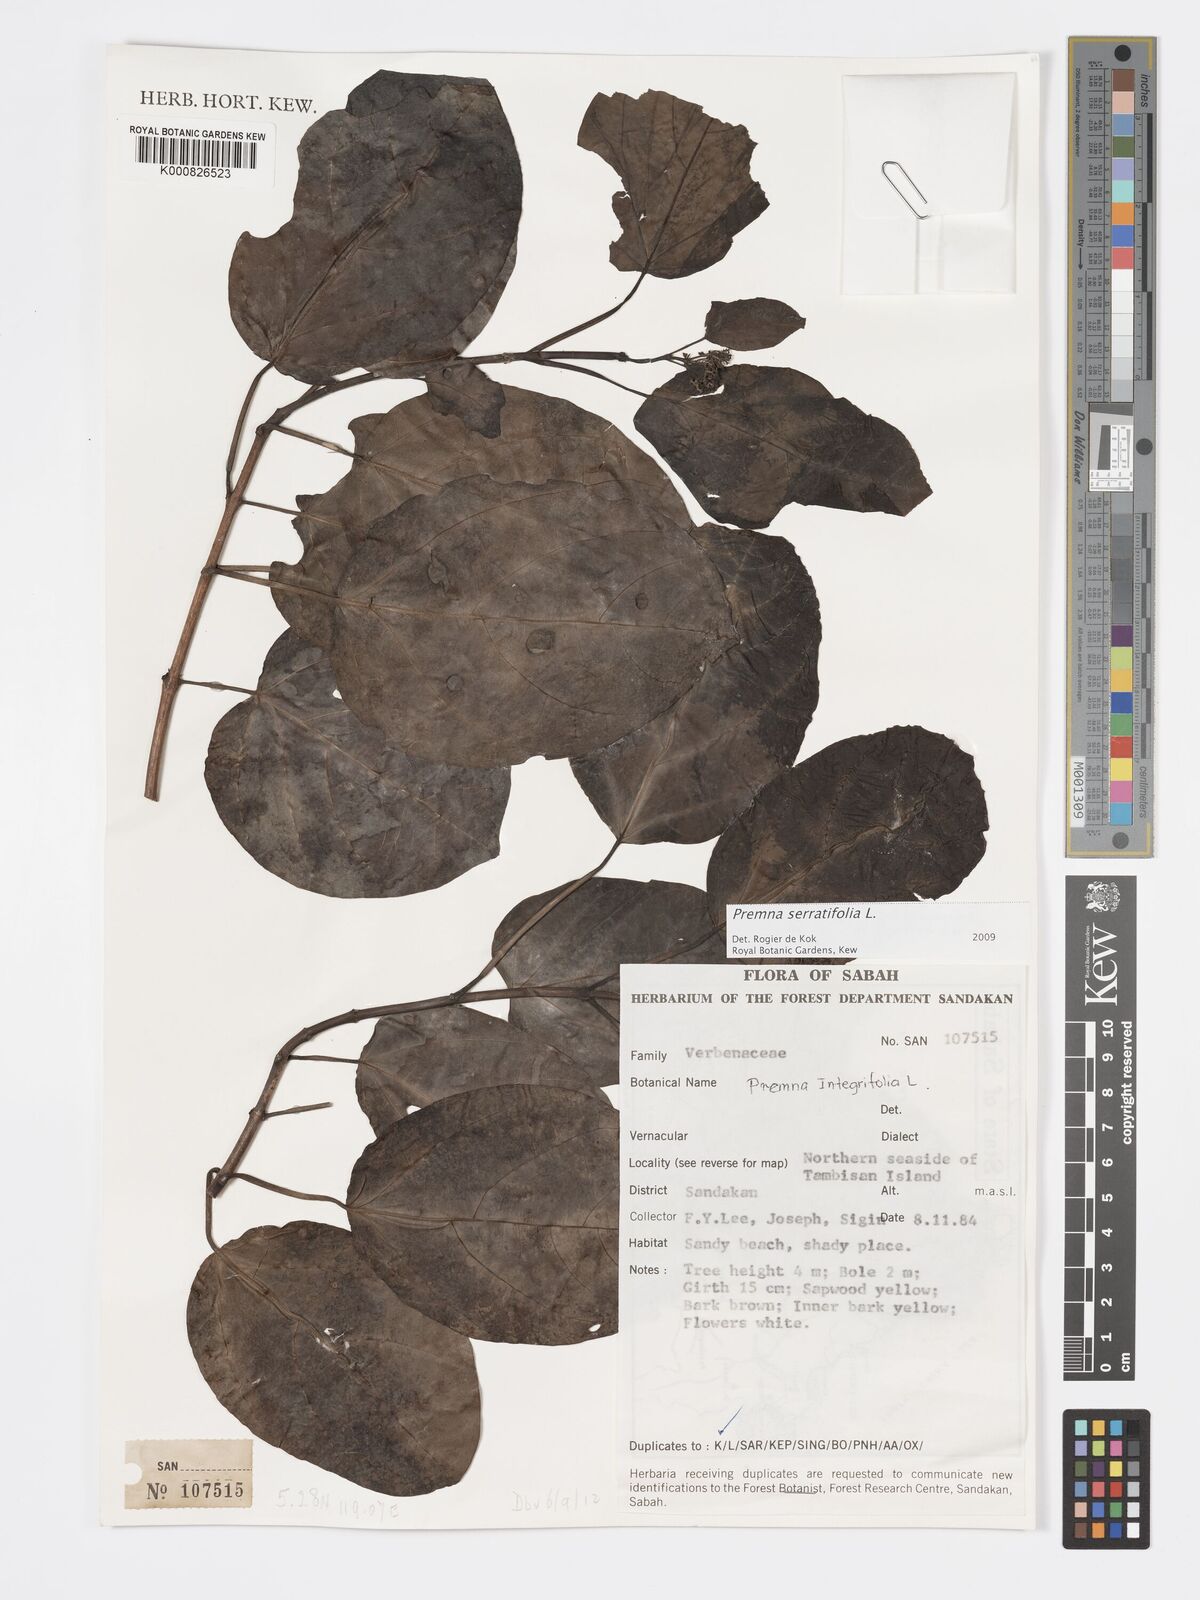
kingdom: Plantae
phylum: Tracheophyta
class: Magnoliopsida
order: Lamiales
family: Lamiaceae
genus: Premna
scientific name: Premna serratifolia
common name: Bastard guelder
